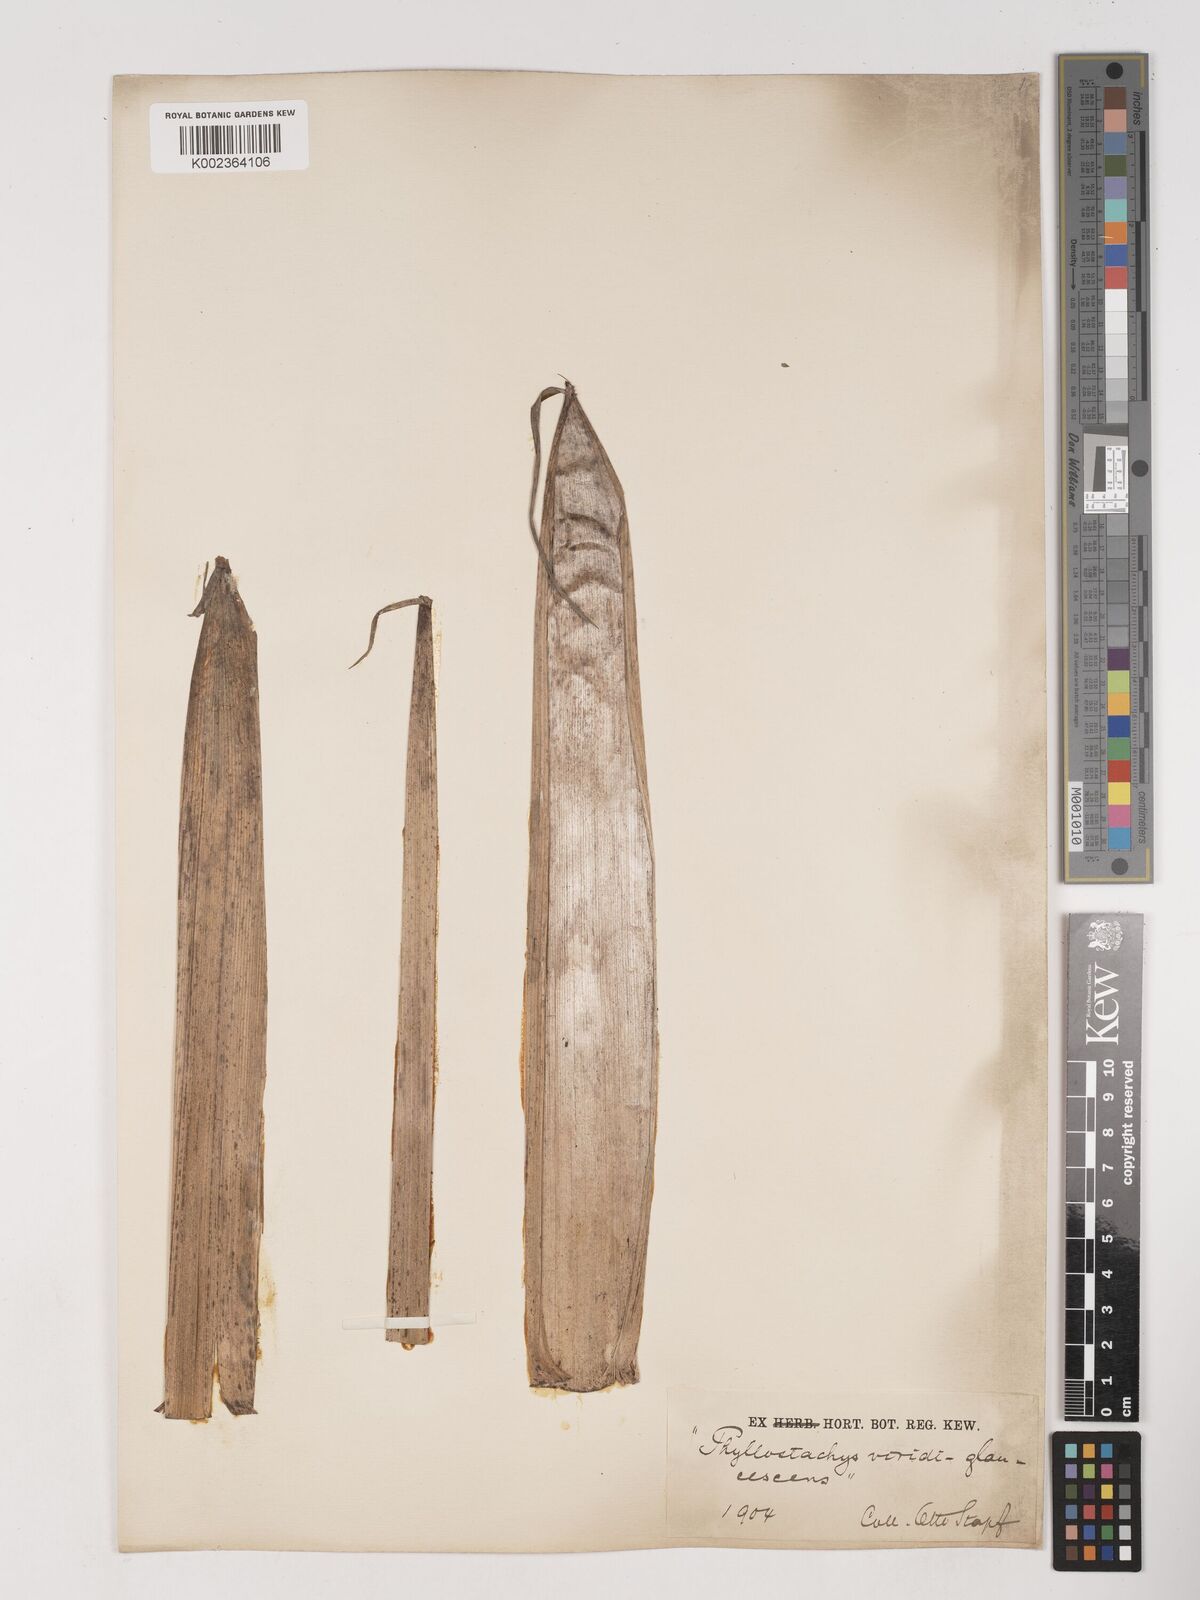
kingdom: Plantae
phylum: Tracheophyta
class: Liliopsida
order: Poales
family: Poaceae
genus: Phyllostachys
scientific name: Phyllostachys viridiglaucescens
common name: Greenwax golden bamboo
